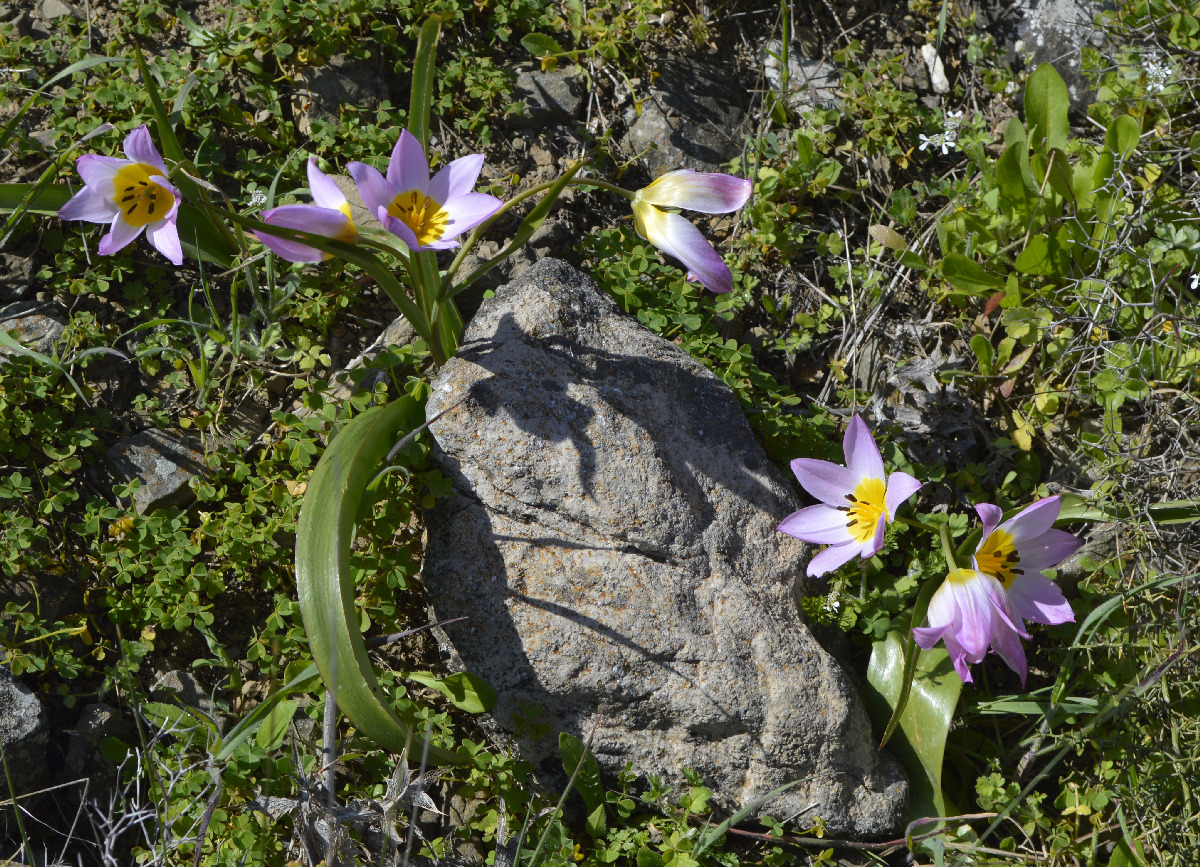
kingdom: Plantae
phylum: Tracheophyta
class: Liliopsida
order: Liliales
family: Liliaceae
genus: Tulipa
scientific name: Tulipa saxatilis
